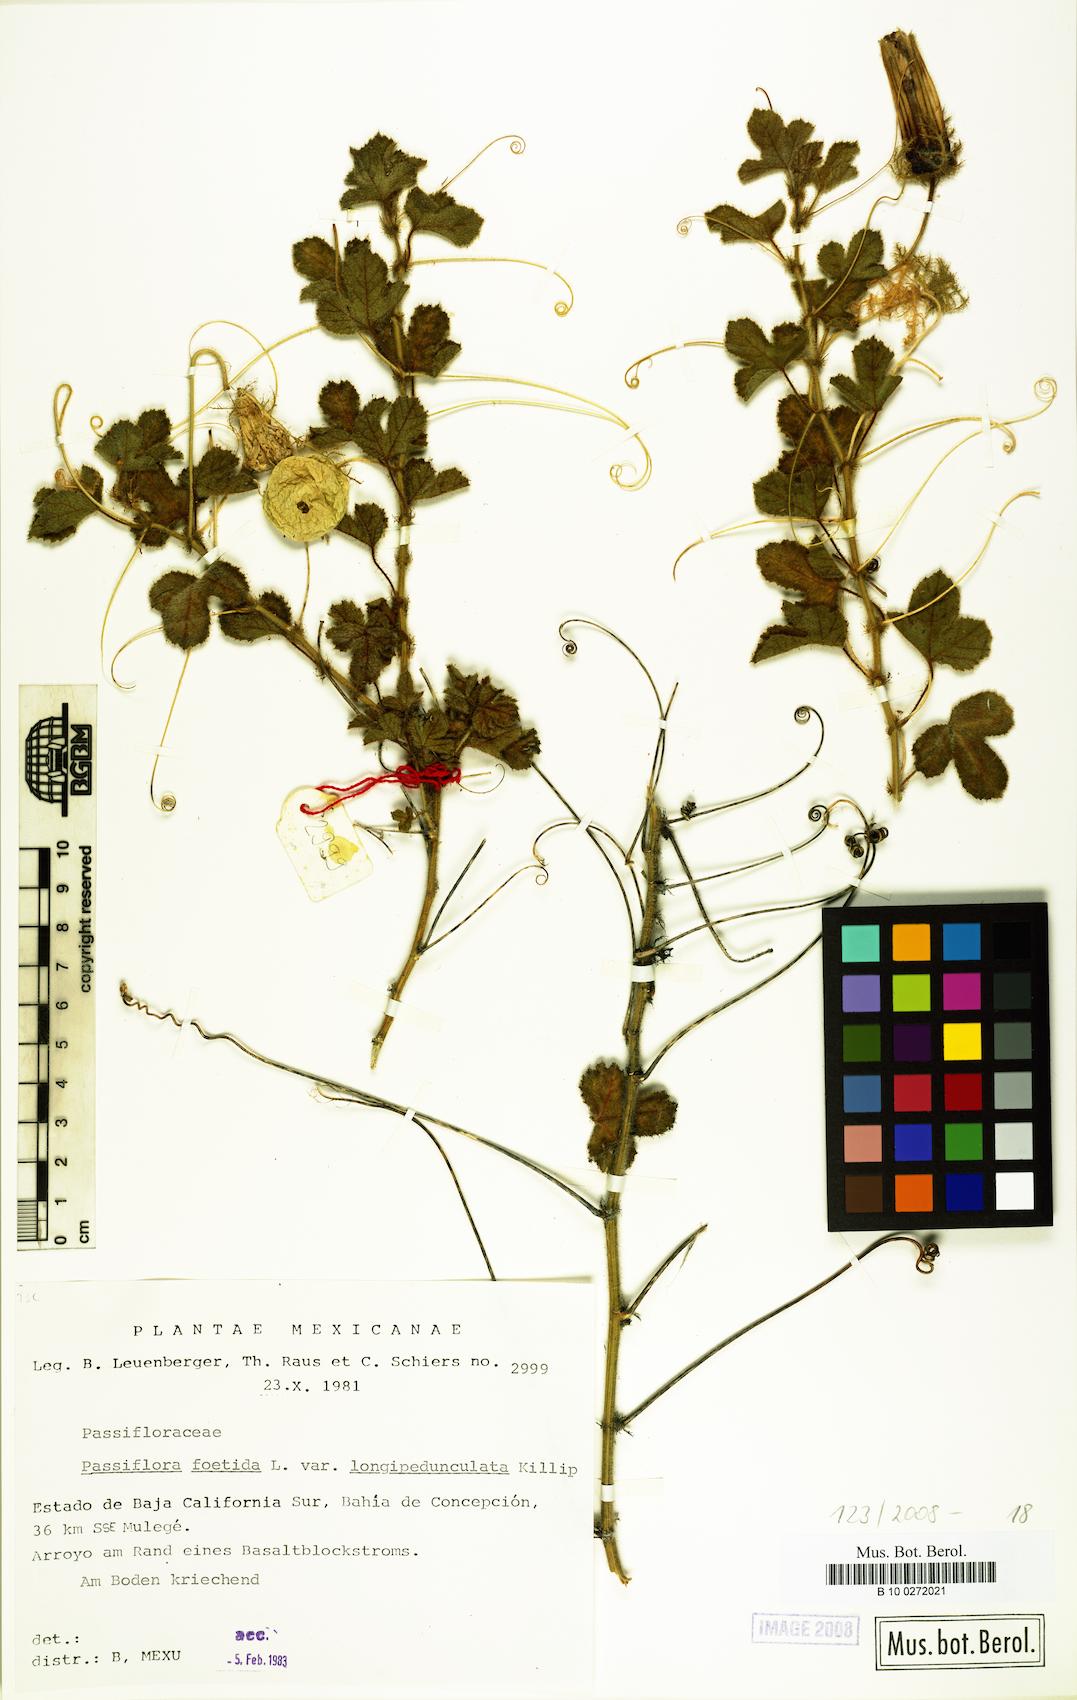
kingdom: Plantae
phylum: Tracheophyta
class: Magnoliopsida
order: Malpighiales
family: Passifloraceae
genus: Passiflora
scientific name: Passiflora arizonica
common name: Arizona passionflower
